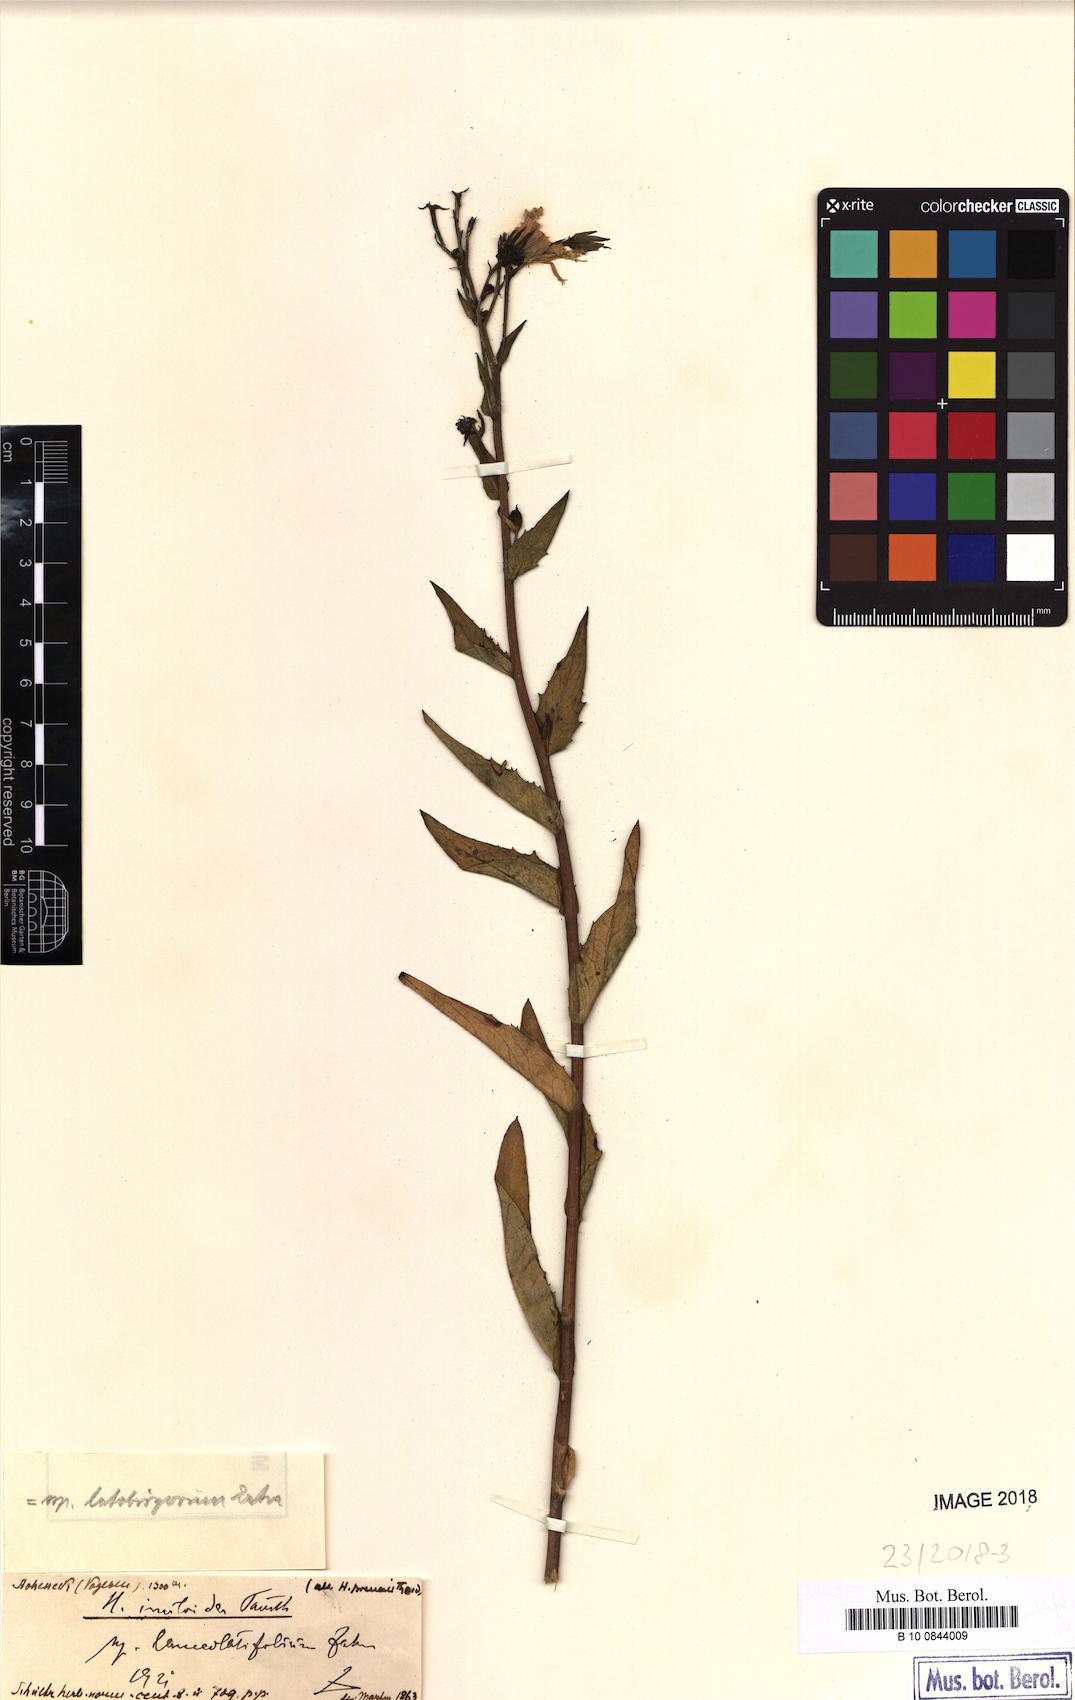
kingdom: Plantae
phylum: Tracheophyta
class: Magnoliopsida
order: Asterales
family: Asteraceae
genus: Hieracium
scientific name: Hieracium inuloides
